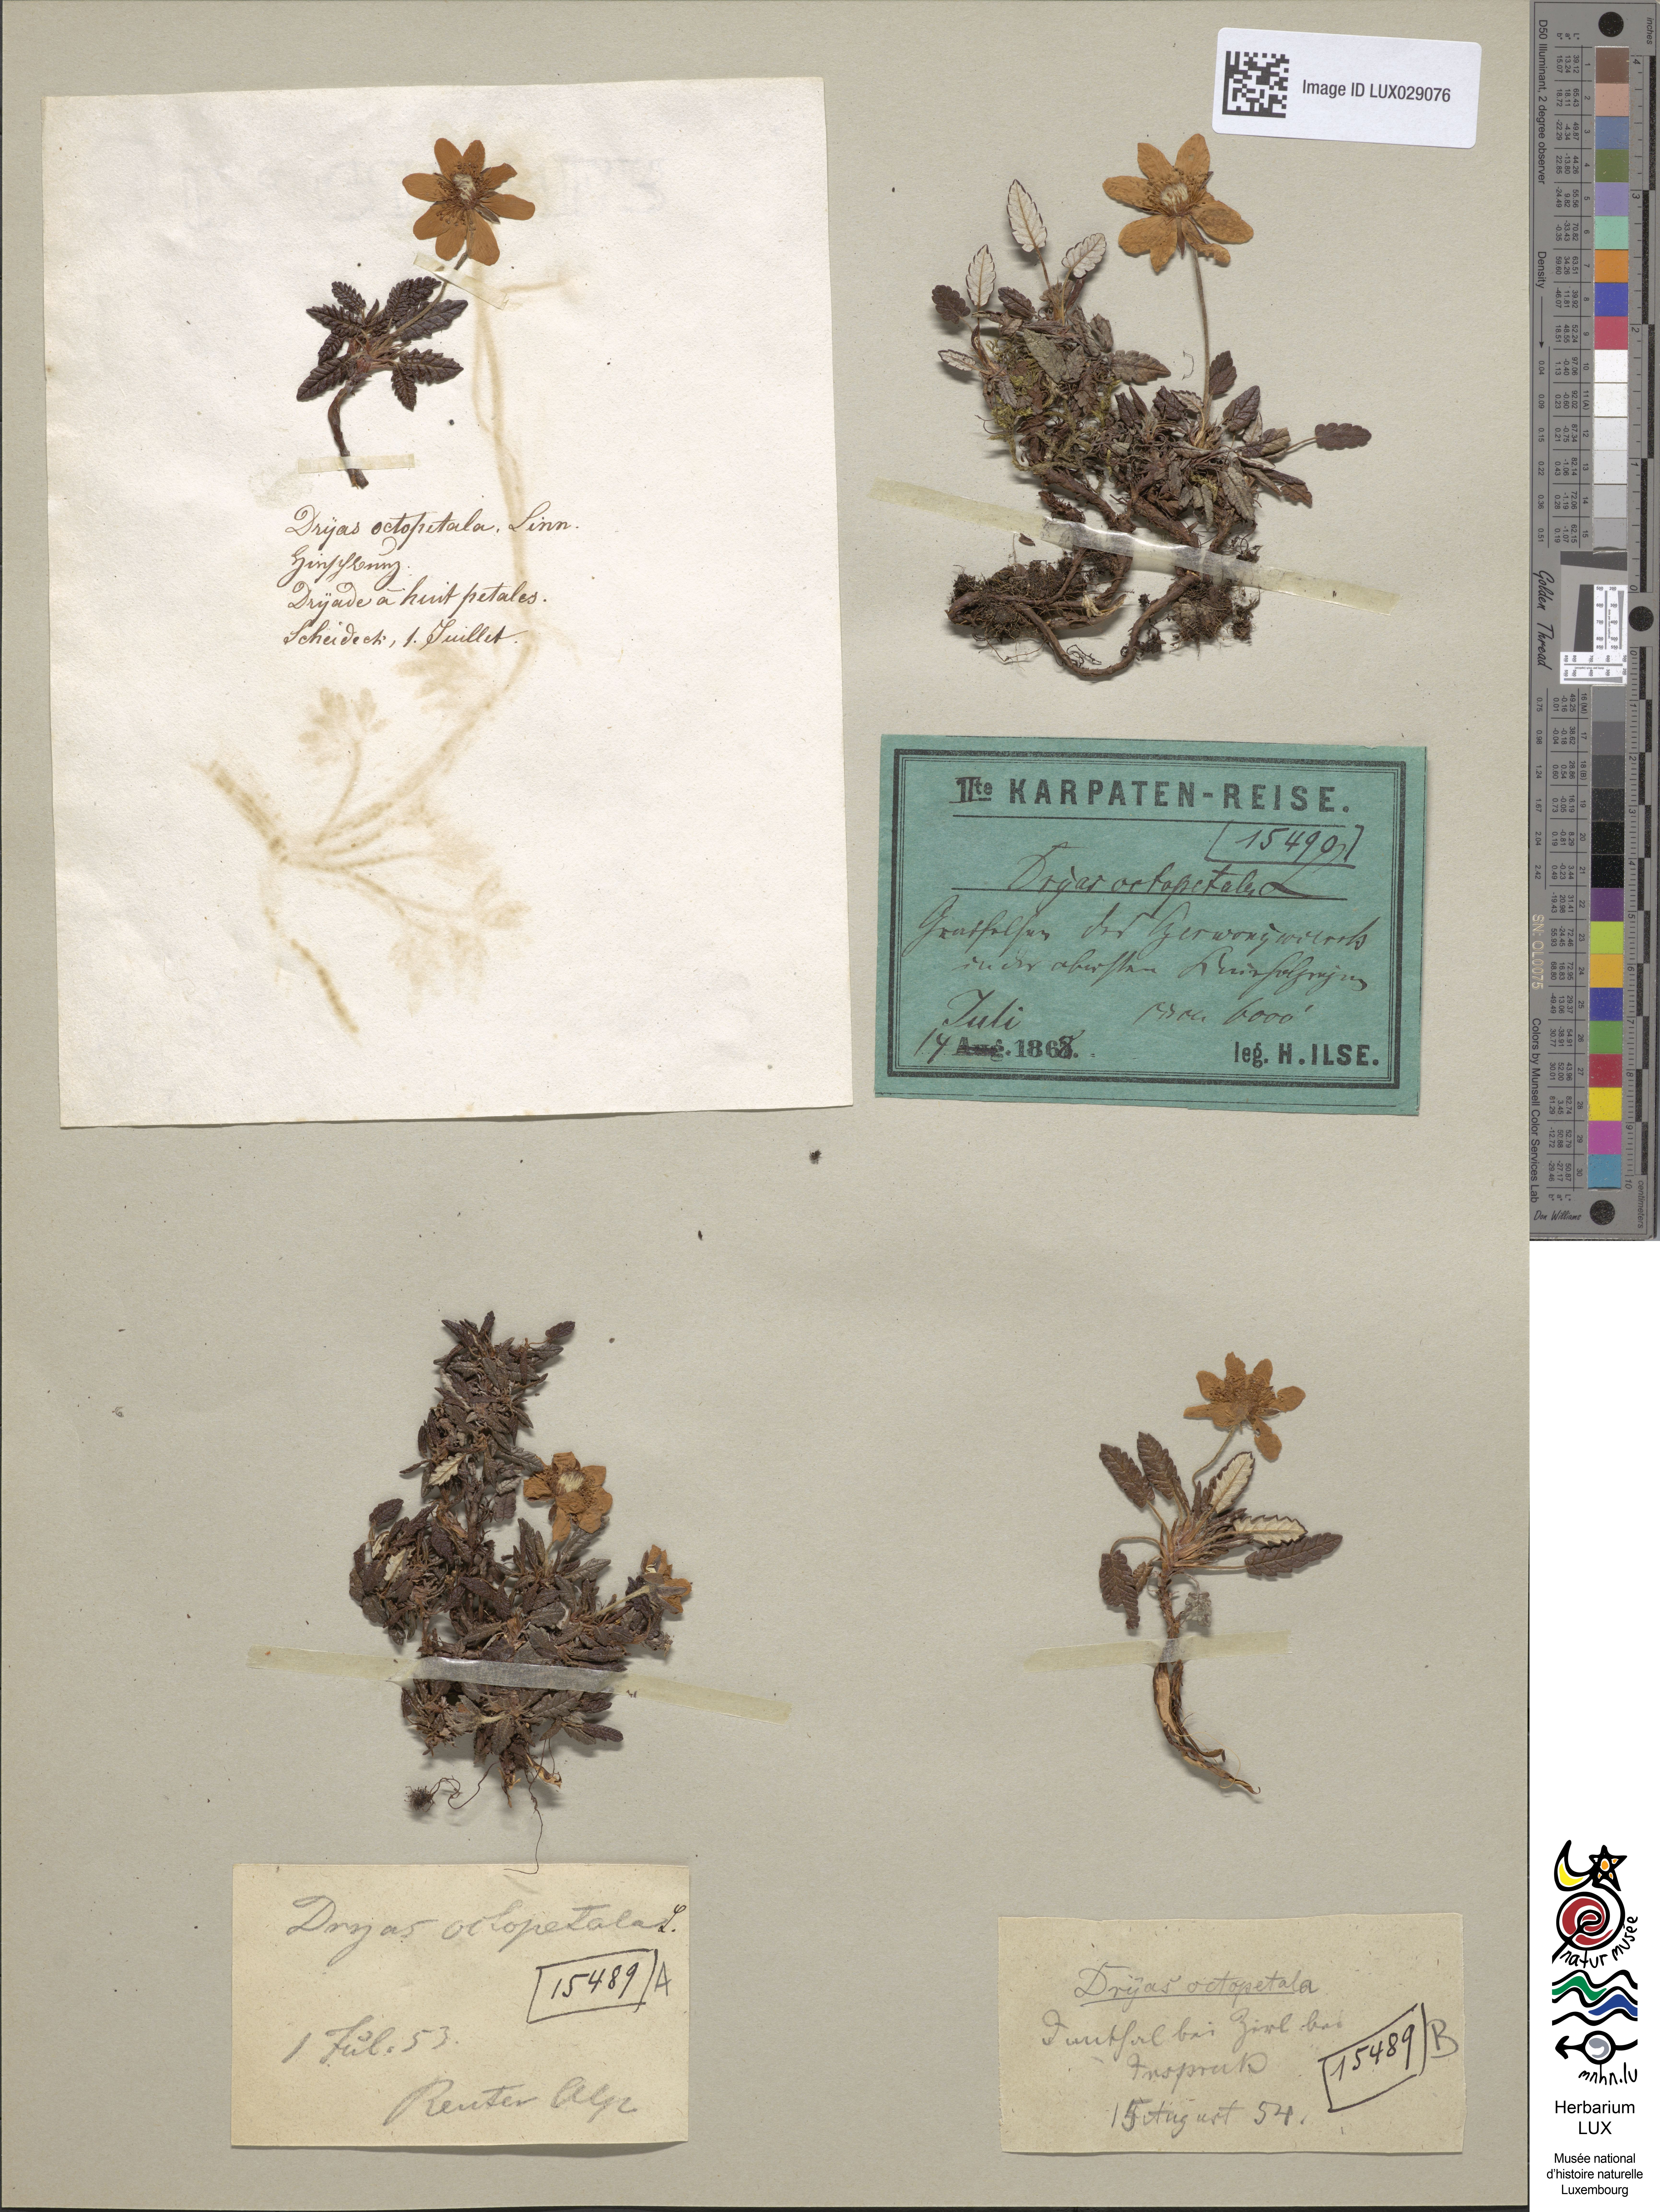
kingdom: Plantae
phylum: Tracheophyta
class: Magnoliopsida
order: Rosales
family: Rosaceae
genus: Dryas
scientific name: Dryas octopetala
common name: Eight-petal mountain-avens
